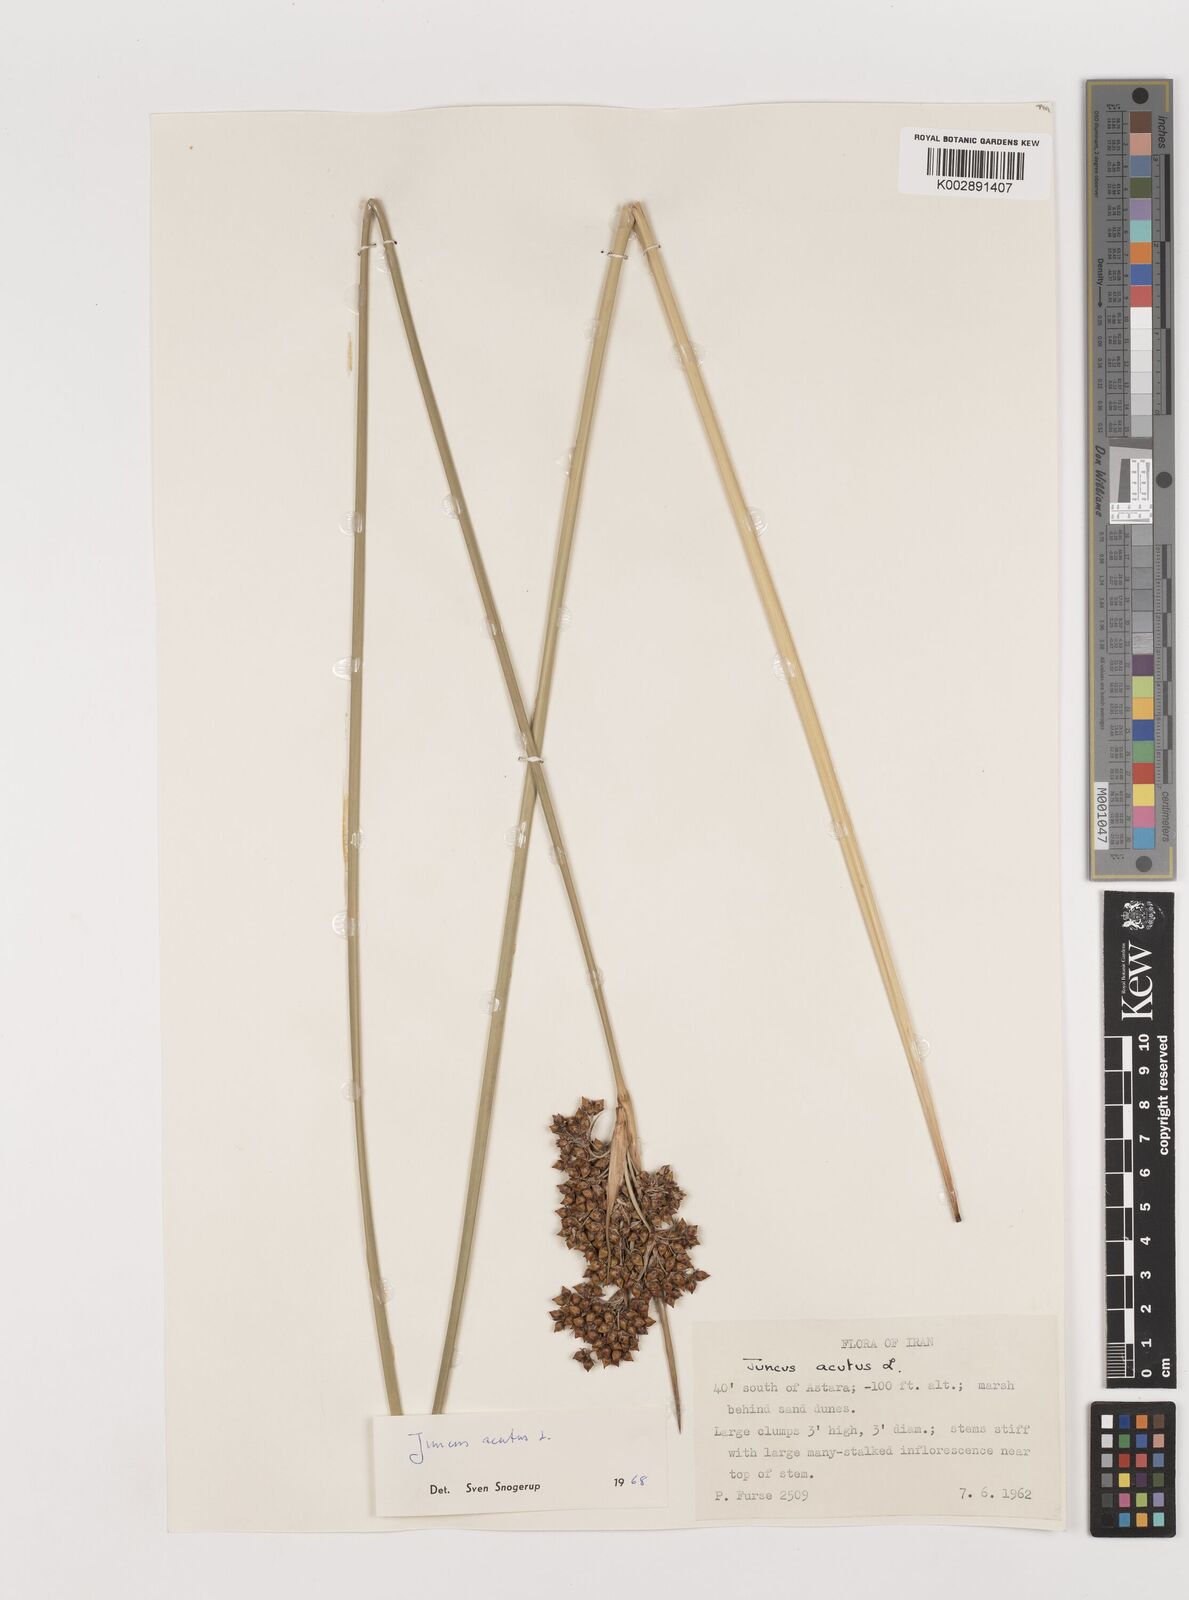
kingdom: Plantae
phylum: Tracheophyta
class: Liliopsida
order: Poales
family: Juncaceae
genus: Juncus
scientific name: Juncus acutus
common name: Sharp rush
